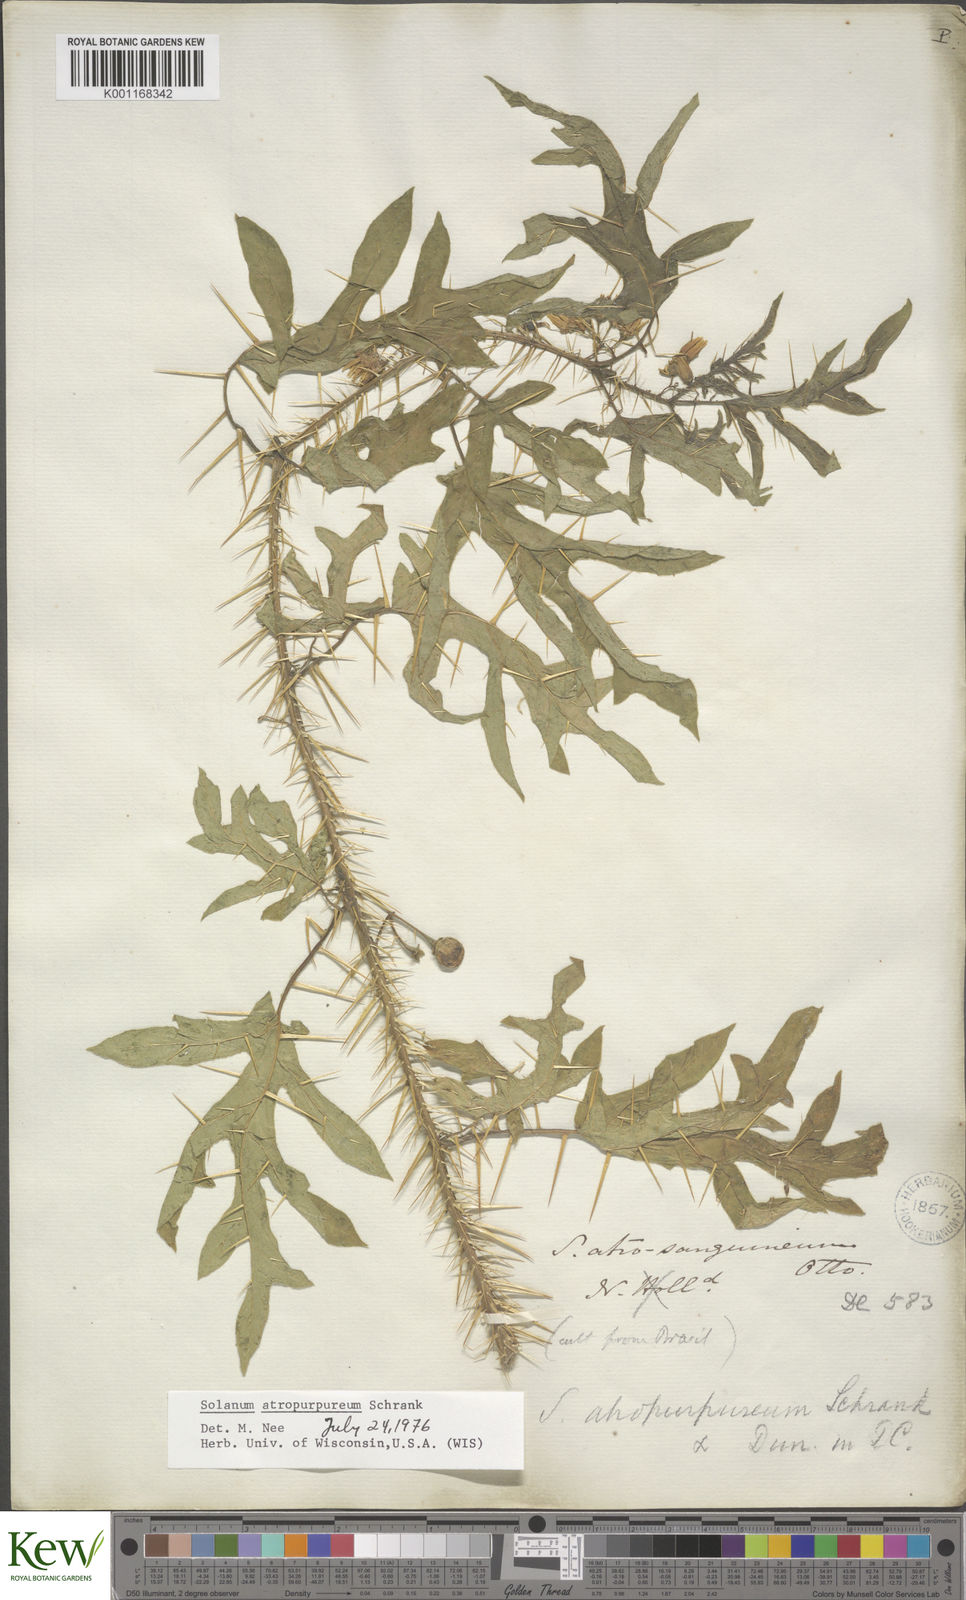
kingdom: Plantae
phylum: Tracheophyta
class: Magnoliopsida
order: Solanales
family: Solanaceae
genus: Solanum
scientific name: Solanum atropurpureum
